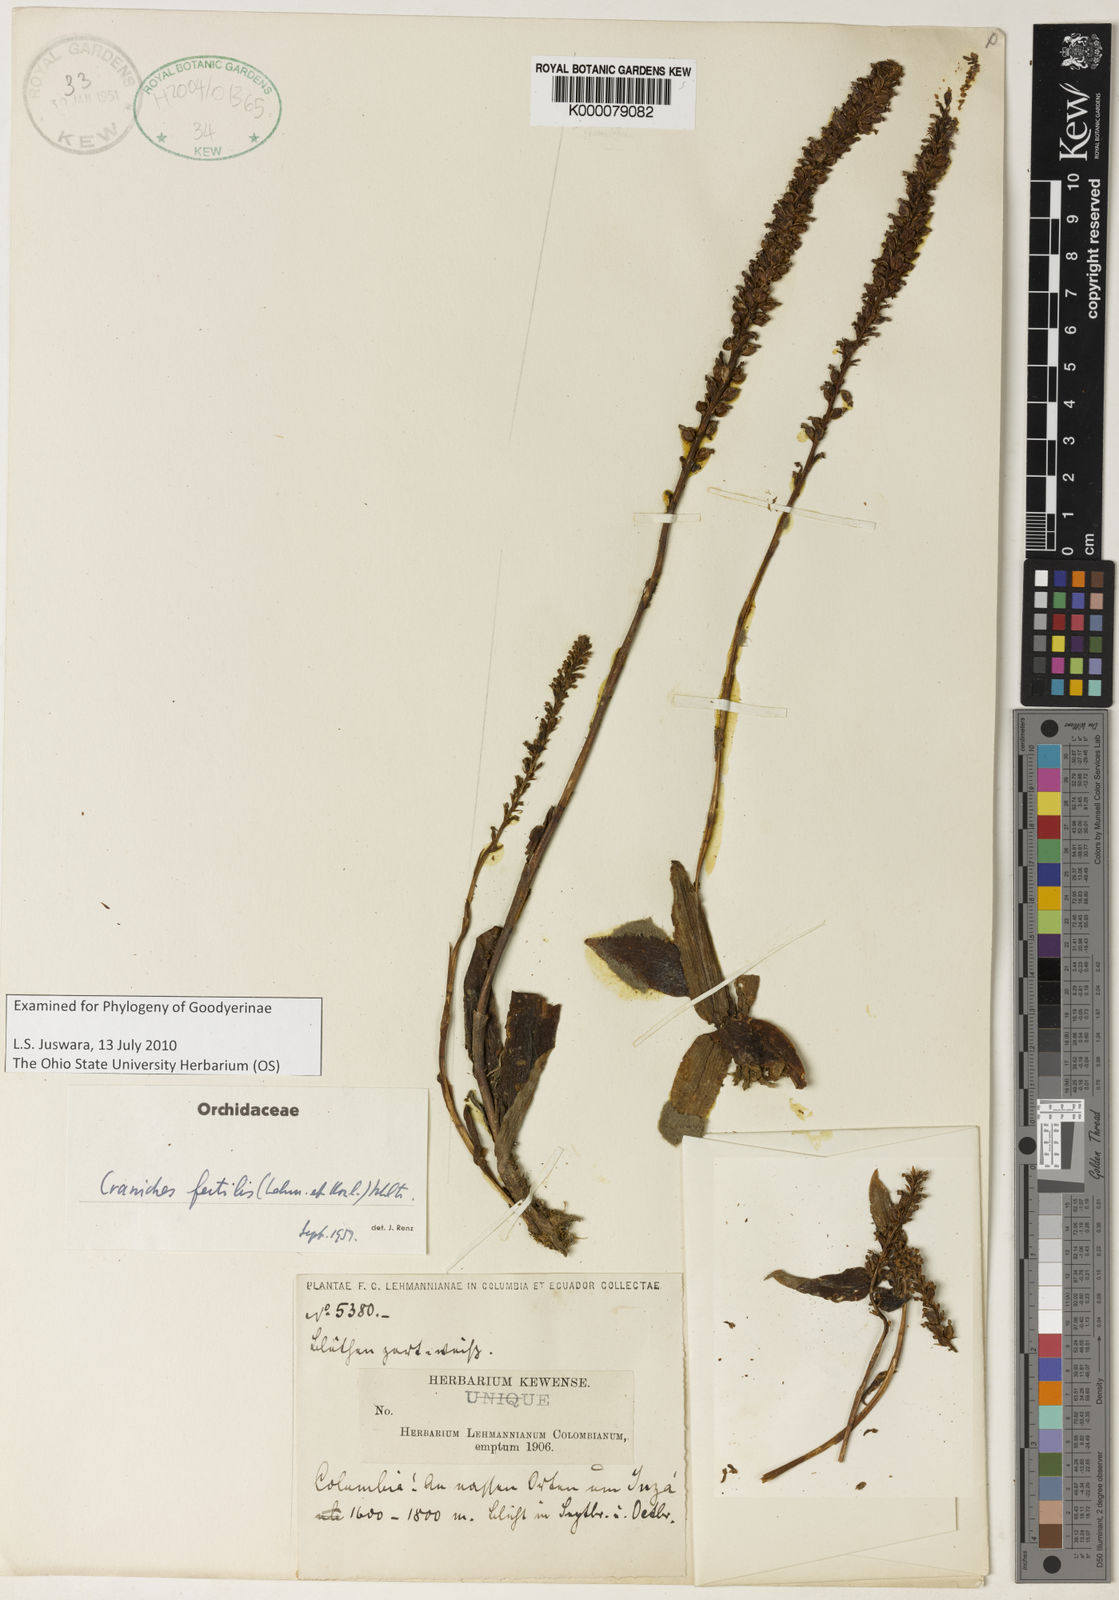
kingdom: Plantae
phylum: Tracheophyta
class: Liliopsida
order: Asparagales
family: Orchidaceae
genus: Ponthieva
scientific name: Ponthieva fertilis
